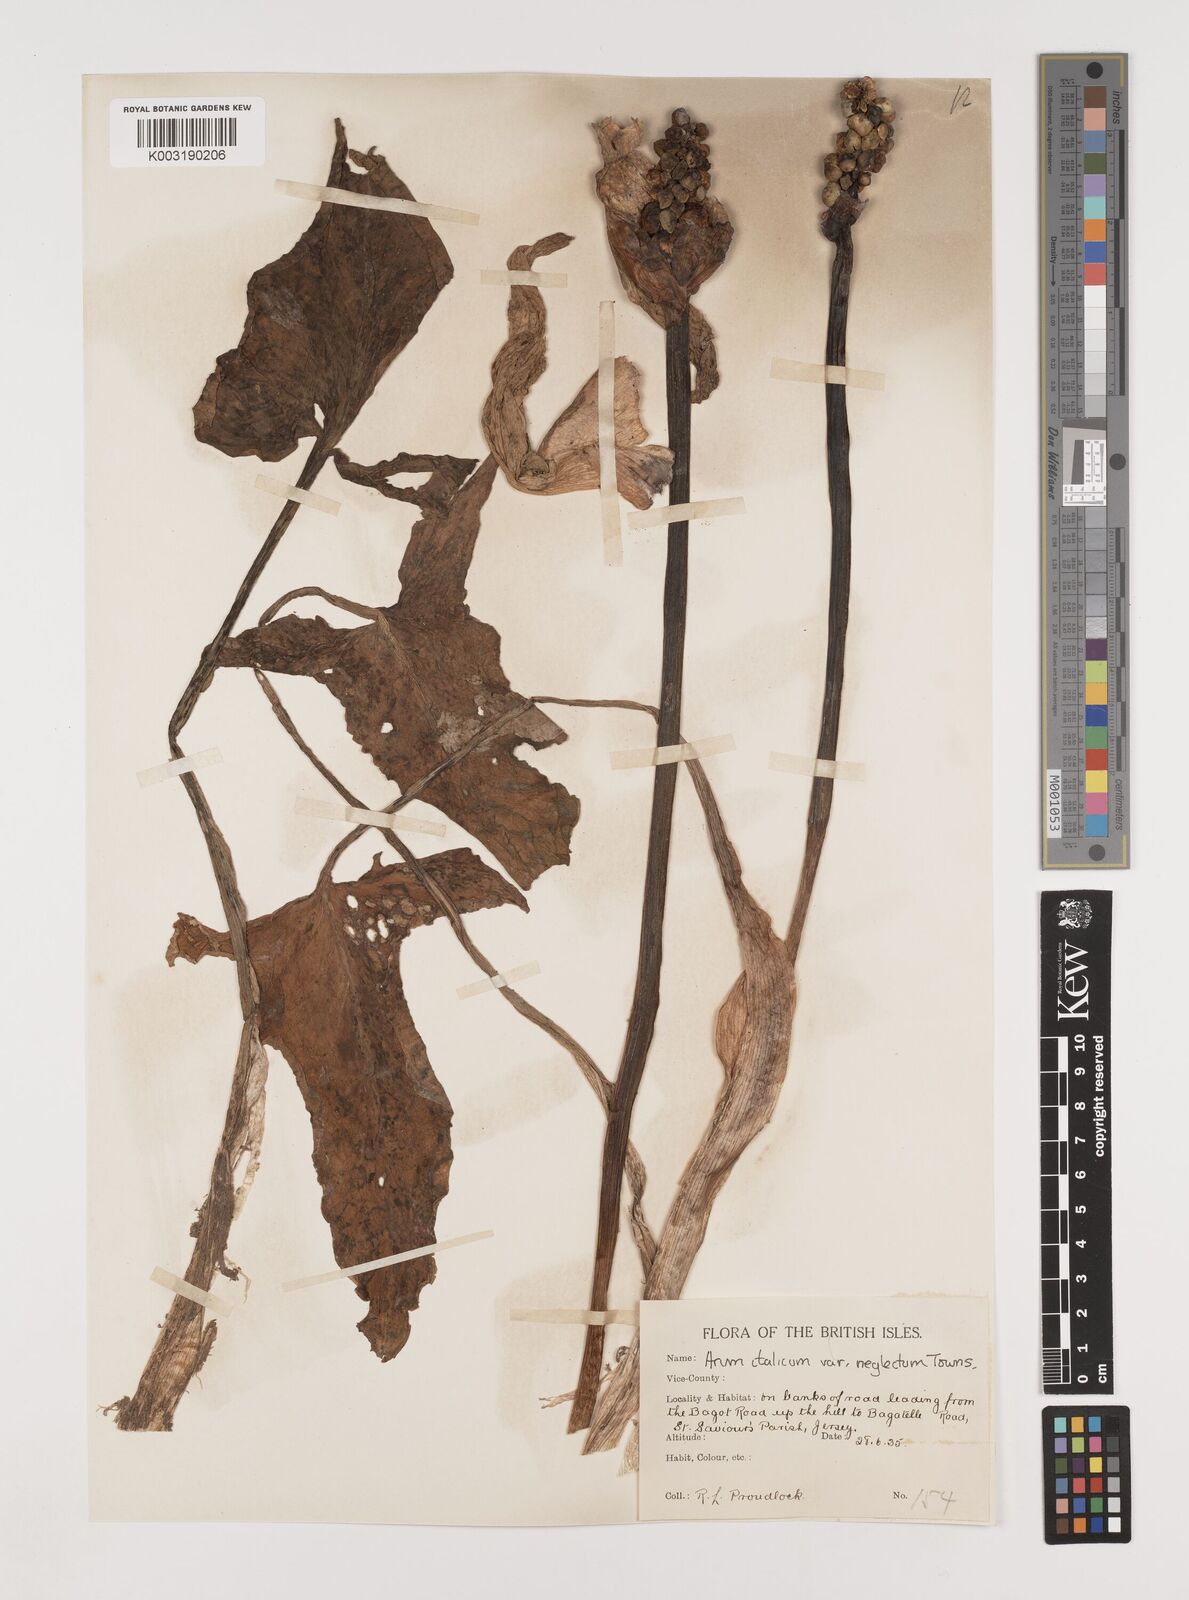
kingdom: Plantae
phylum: Tracheophyta
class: Liliopsida
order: Alismatales
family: Araceae
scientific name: Araceae
